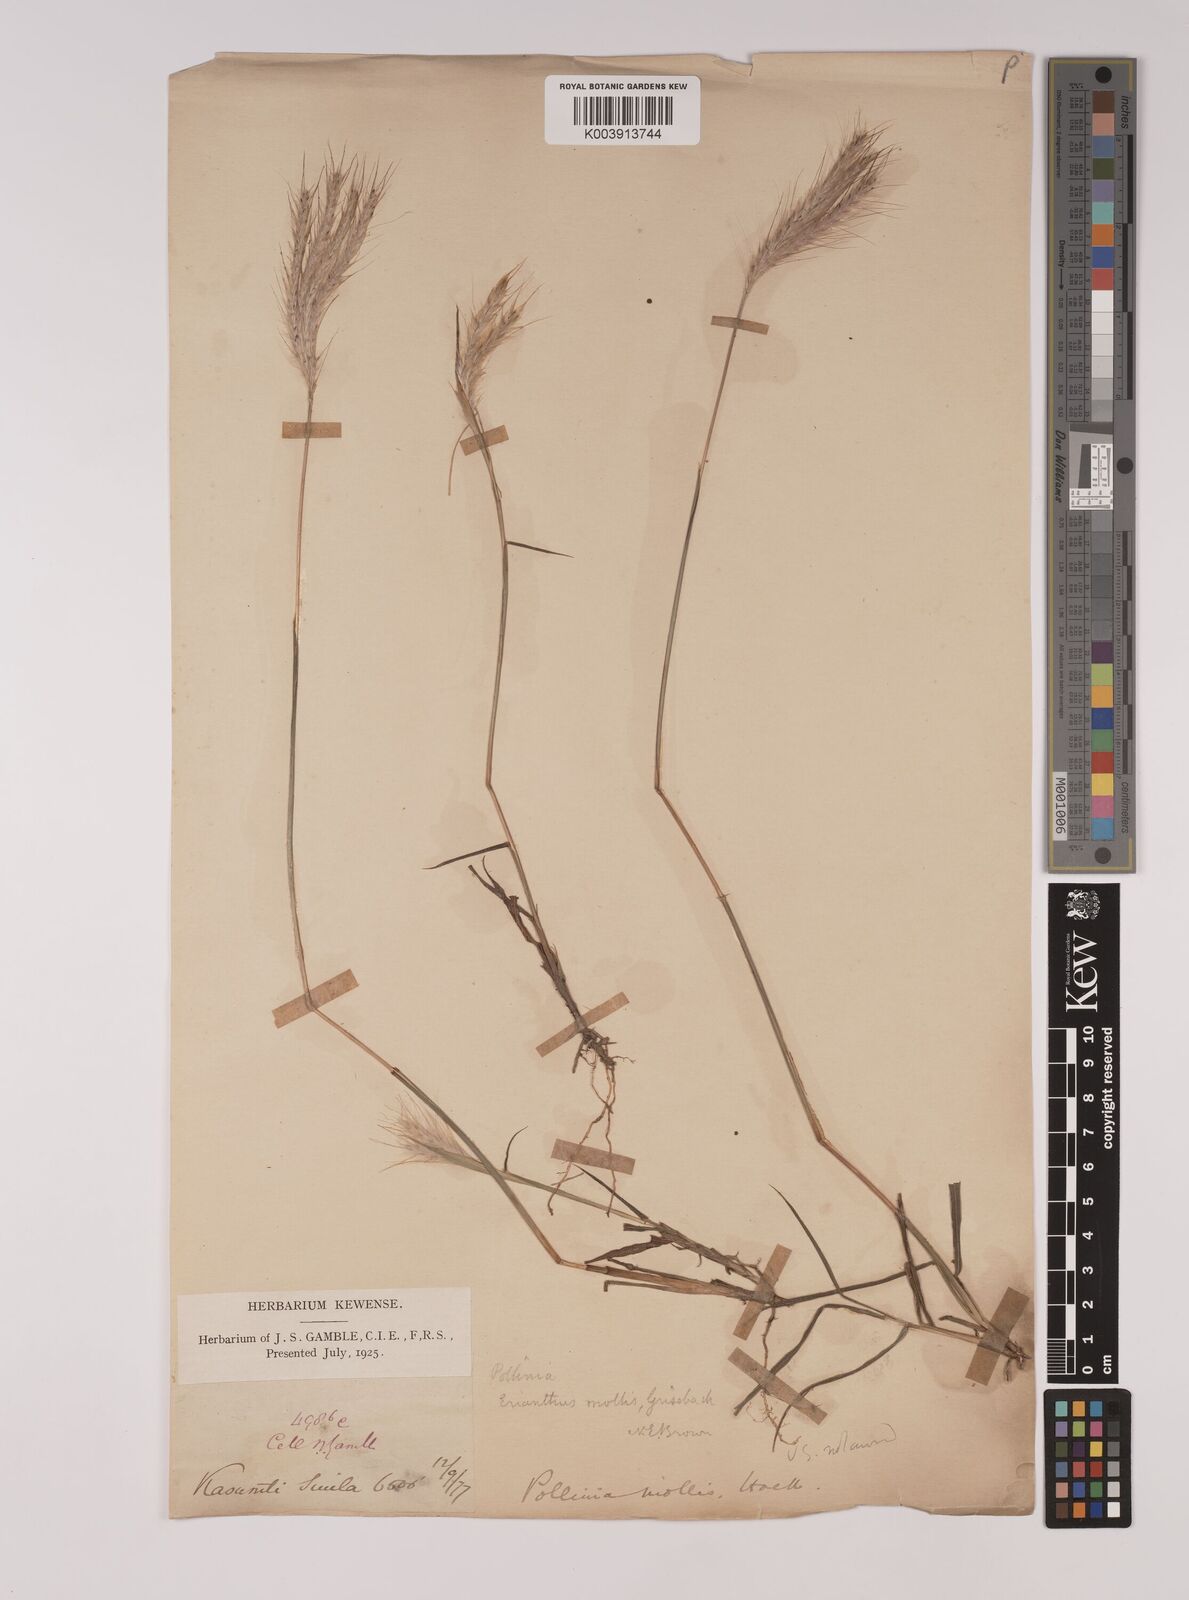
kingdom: Plantae
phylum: Tracheophyta
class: Liliopsida
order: Poales
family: Poaceae
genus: Eulalia
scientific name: Eulalia mollis
